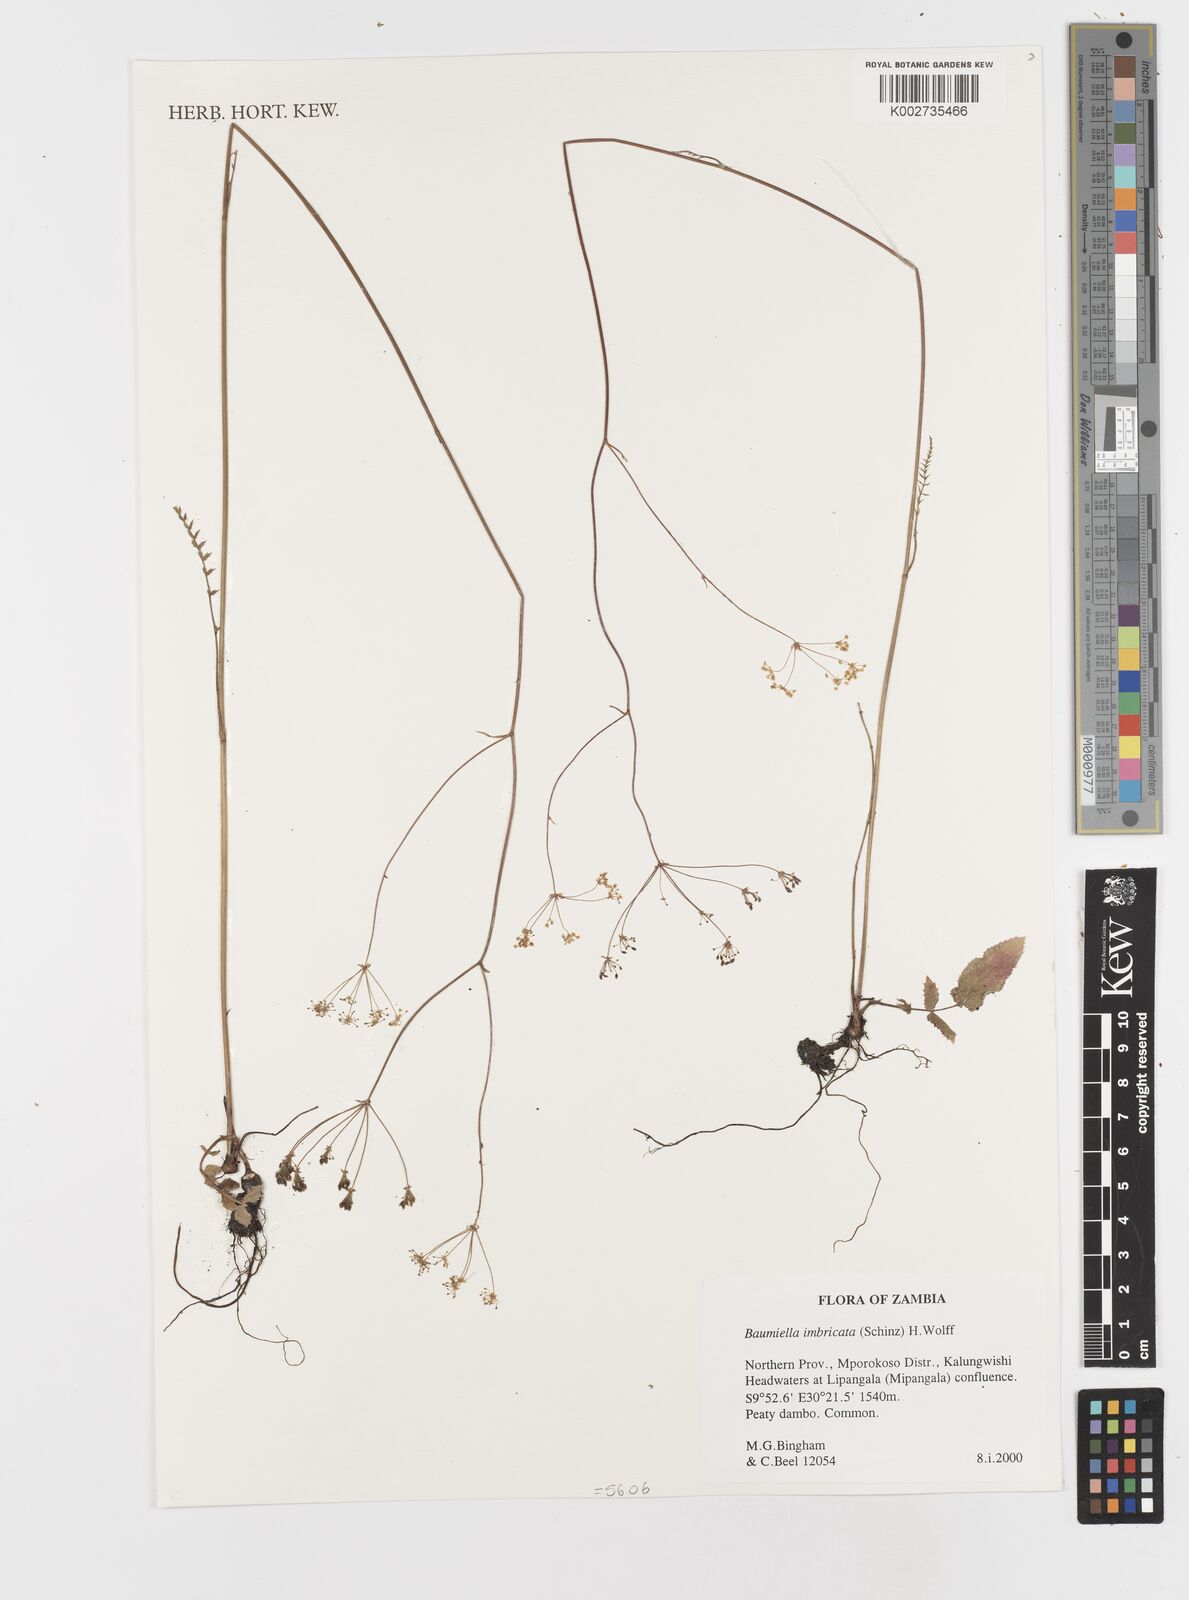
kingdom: Plantae
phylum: Tracheophyta
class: Magnoliopsida
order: Apiales
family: Apiaceae
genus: Berula
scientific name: Berula imbricata
